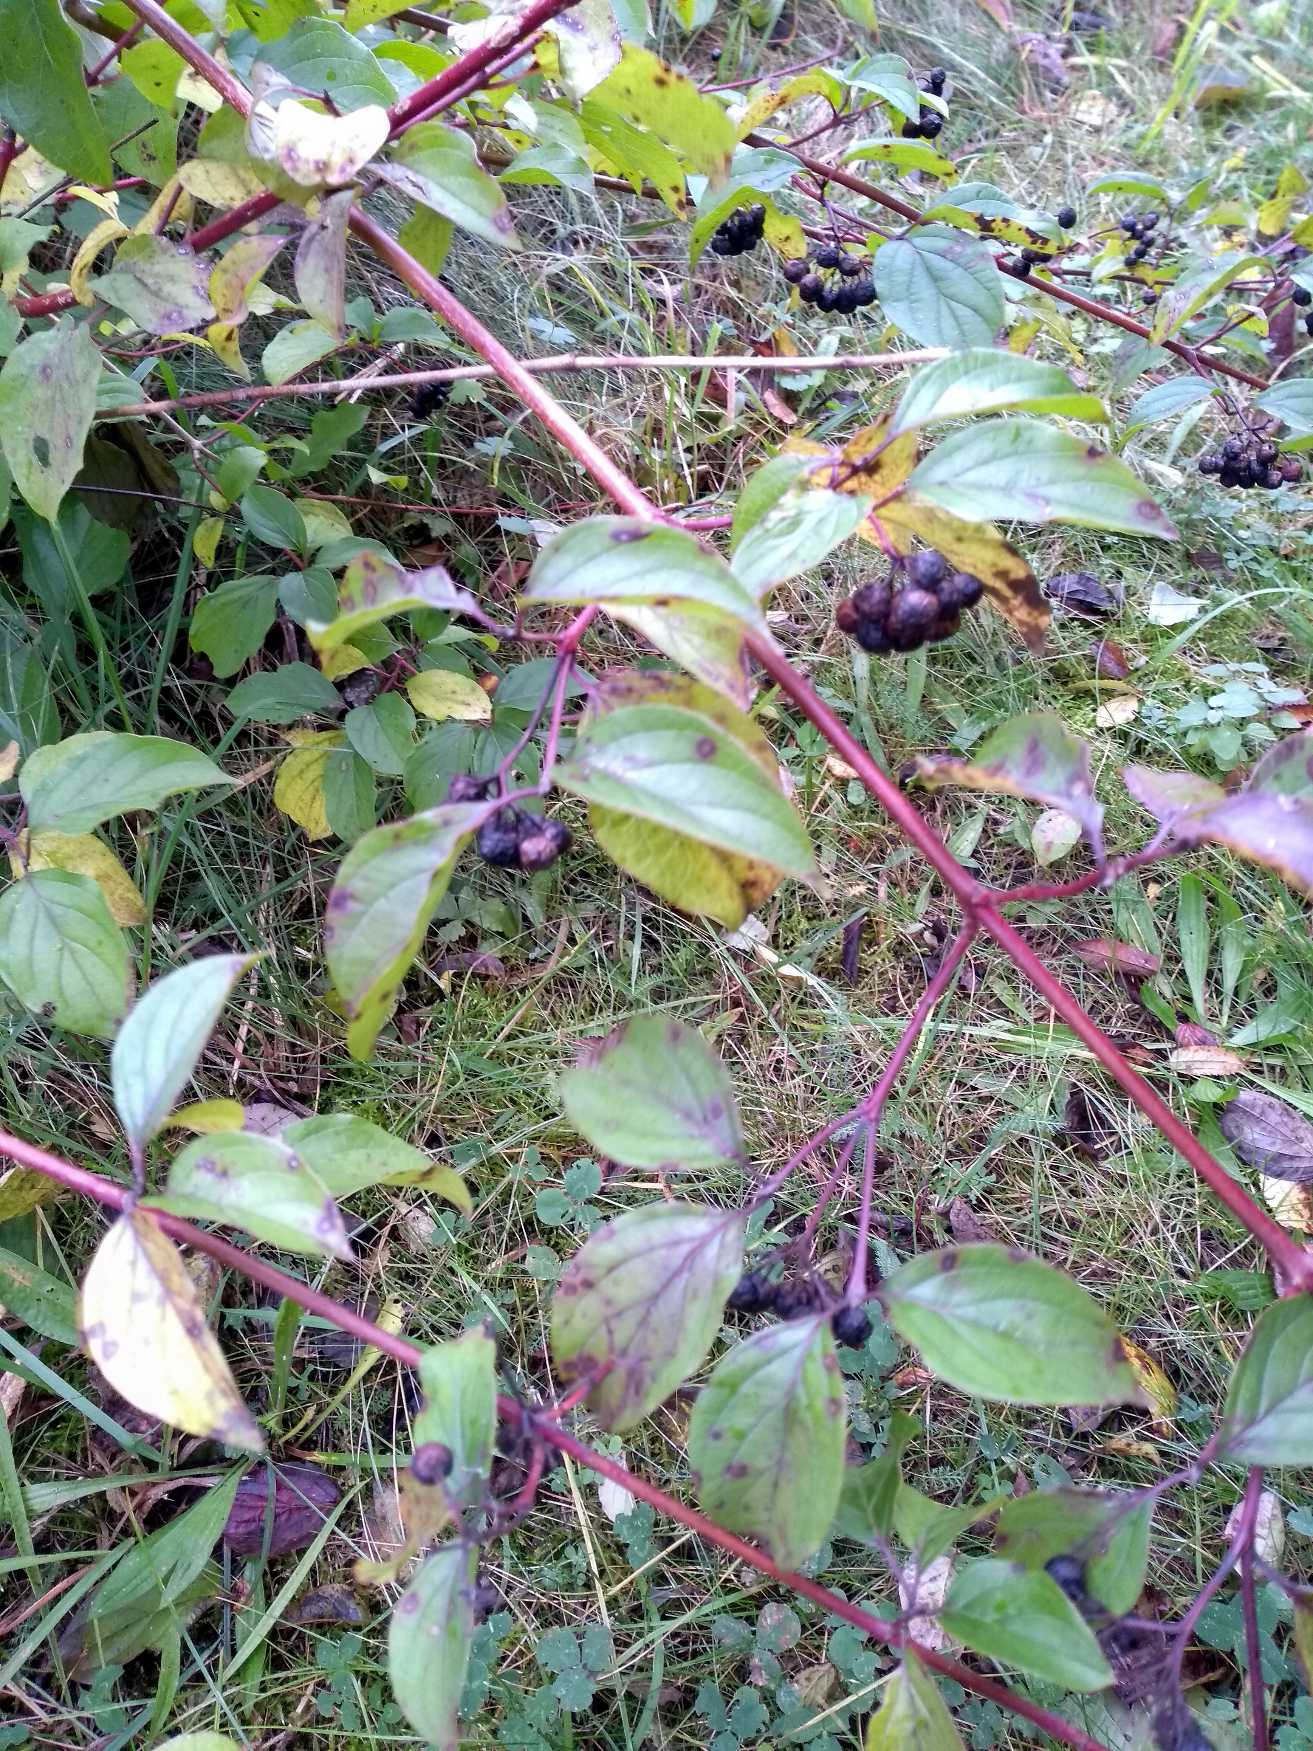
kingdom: Plantae
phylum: Tracheophyta
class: Magnoliopsida
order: Cornales
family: Cornaceae
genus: Cornus
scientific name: Cornus sanguinea
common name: Rød kornel
